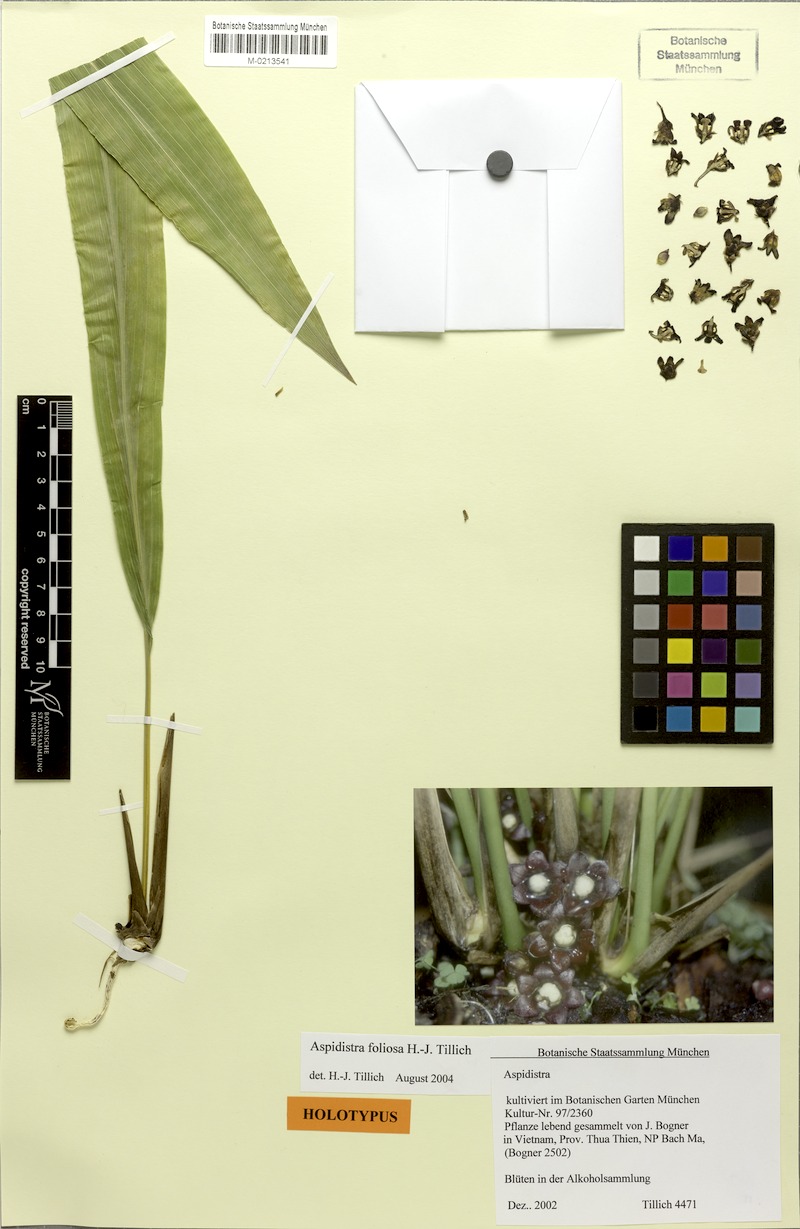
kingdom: Plantae
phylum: Tracheophyta
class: Liliopsida
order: Asparagales
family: Asparagaceae
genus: Aspidistra
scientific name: Aspidistra foliosa
